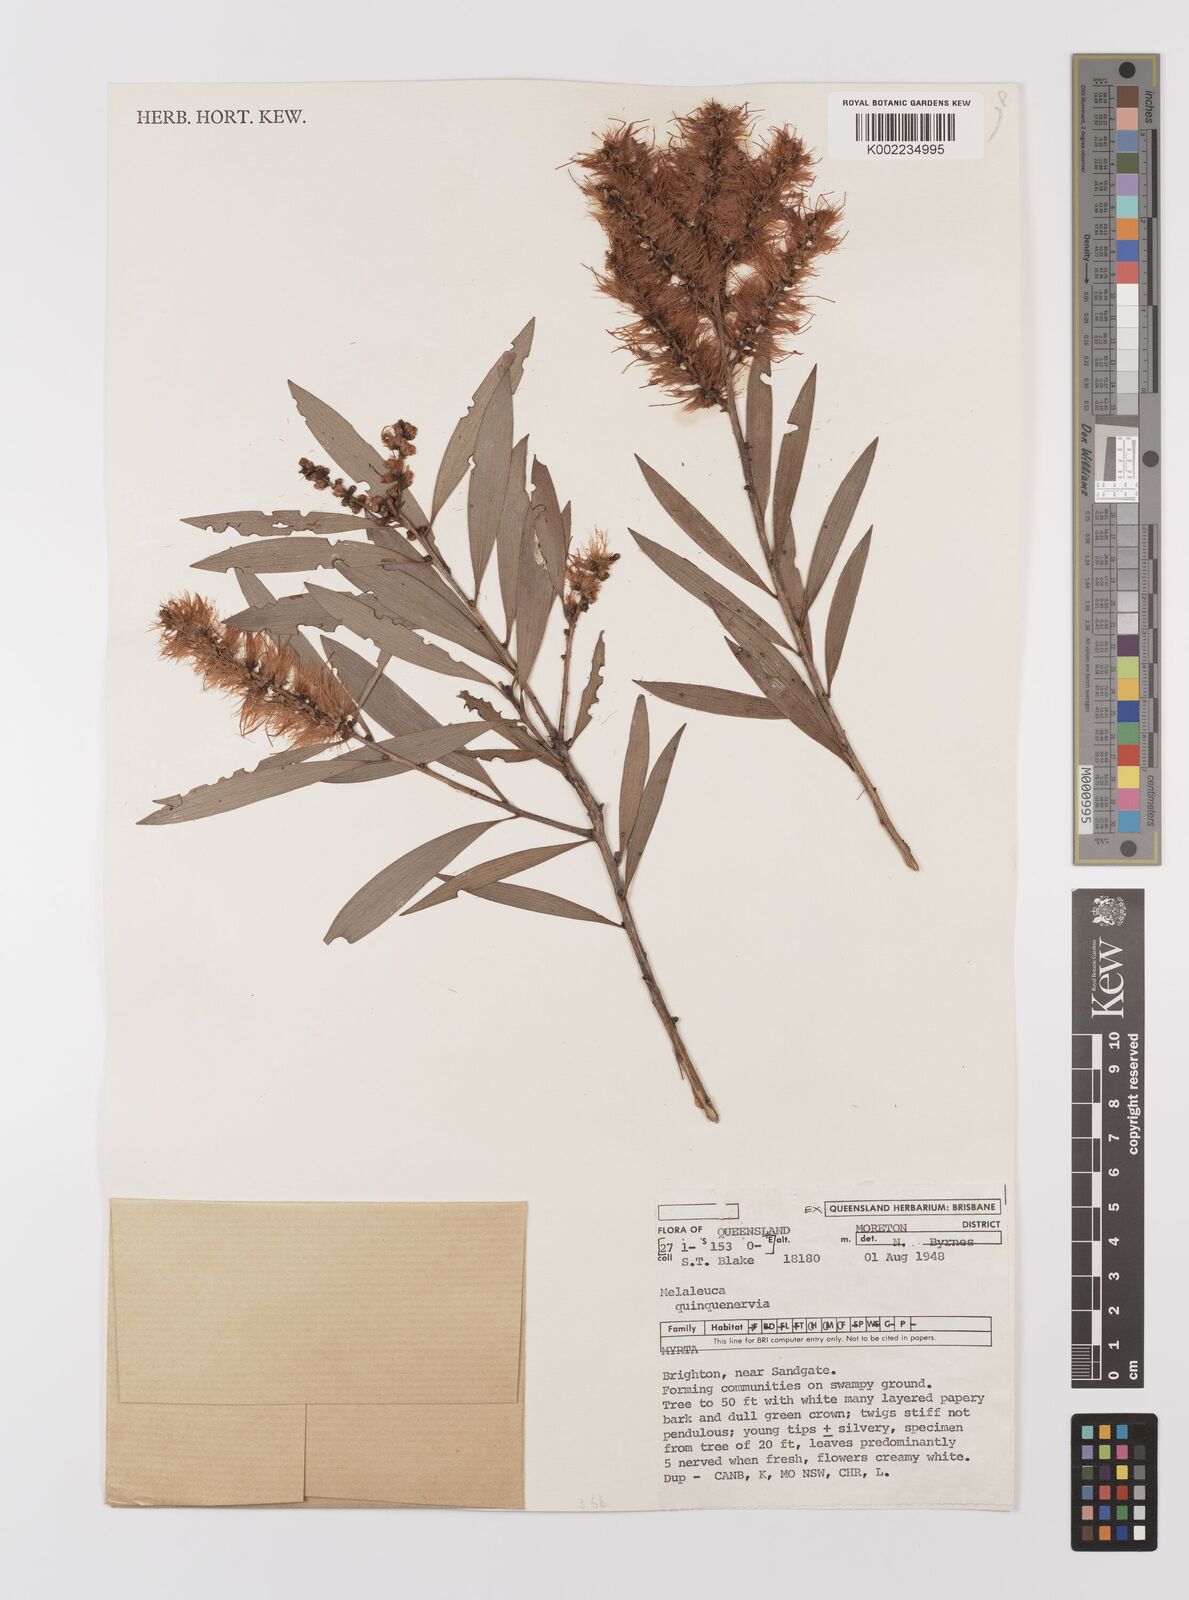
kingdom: Plantae
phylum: Tracheophyta
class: Magnoliopsida
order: Myrtales
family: Myrtaceae
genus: Melaleuca
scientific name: Melaleuca quinquenervia
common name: Punktree
